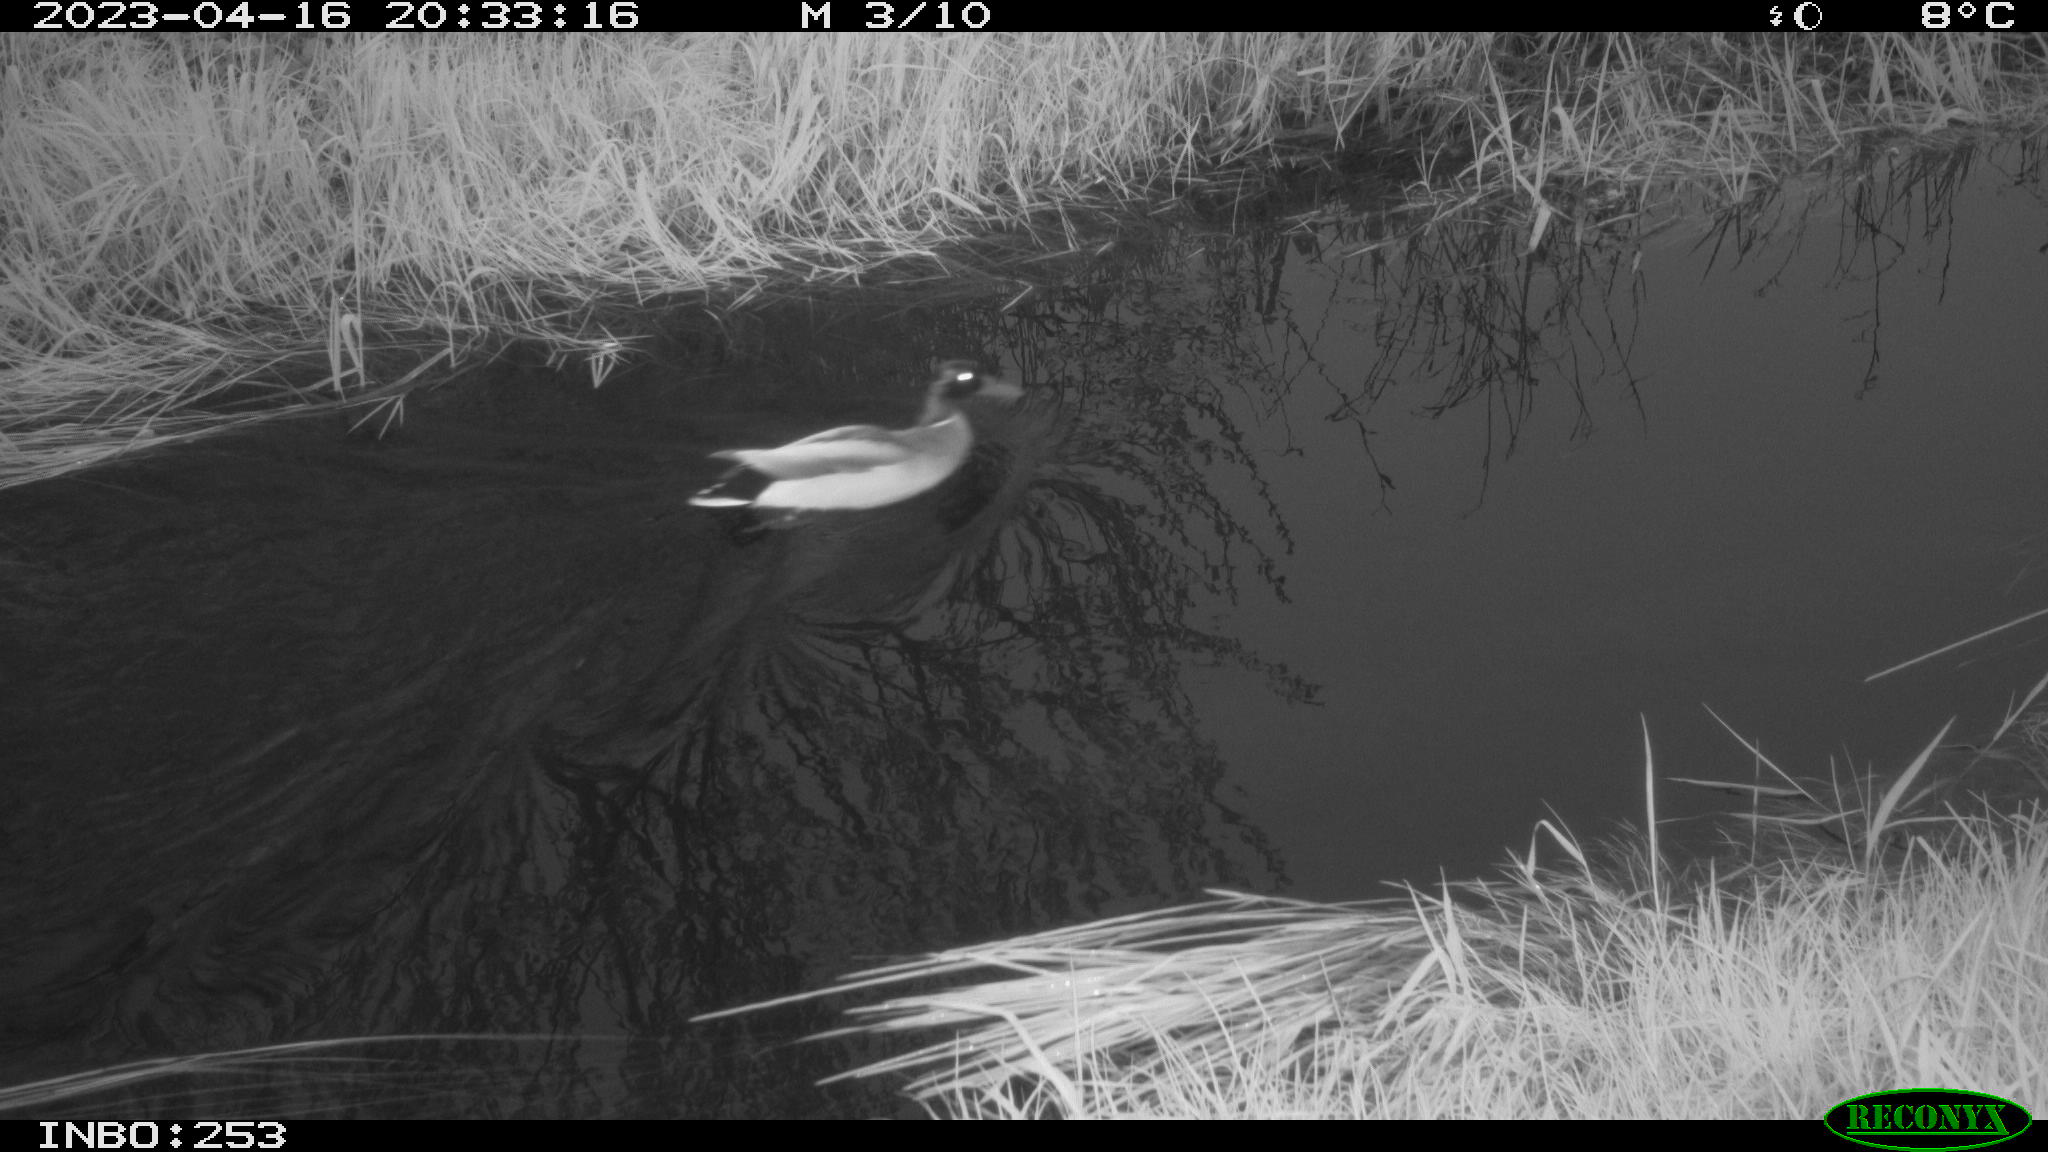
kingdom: Animalia
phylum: Chordata
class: Aves
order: Anseriformes
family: Anatidae
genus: Anas
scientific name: Anas
